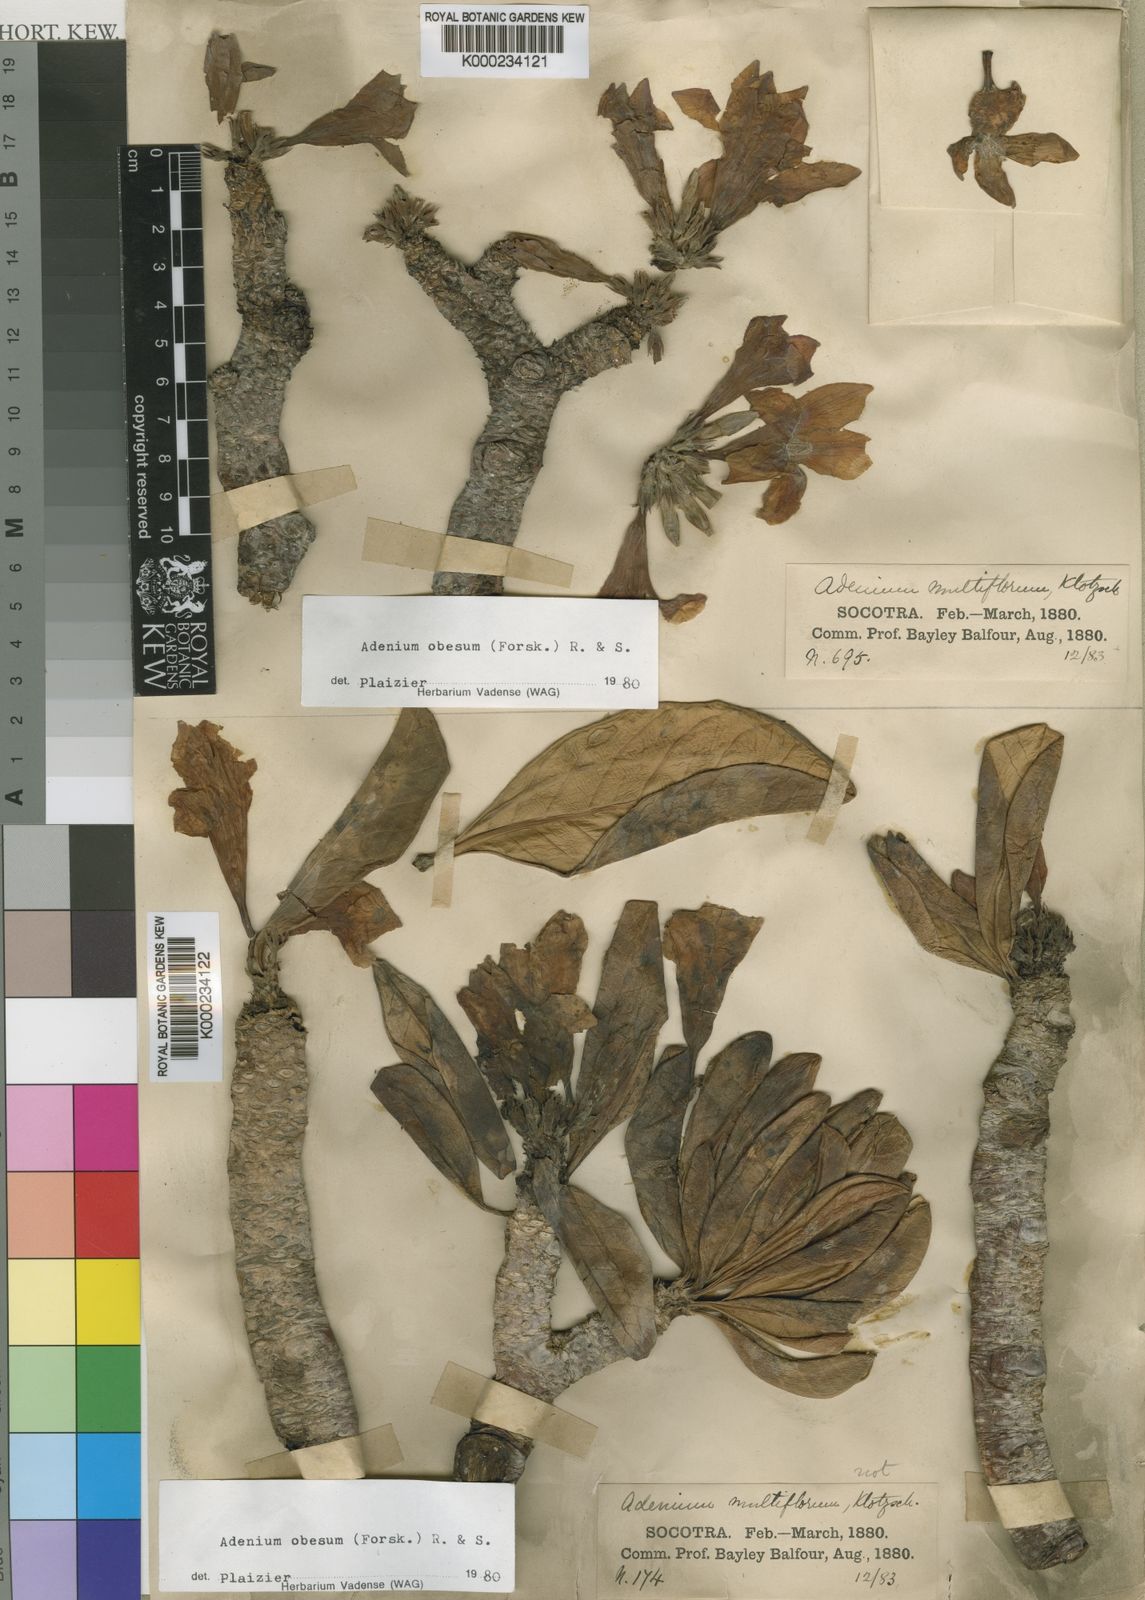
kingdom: Plantae
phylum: Tracheophyta
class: Magnoliopsida
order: Gentianales
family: Apocynaceae
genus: Adenium
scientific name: Adenium obesum
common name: Desert-rose
